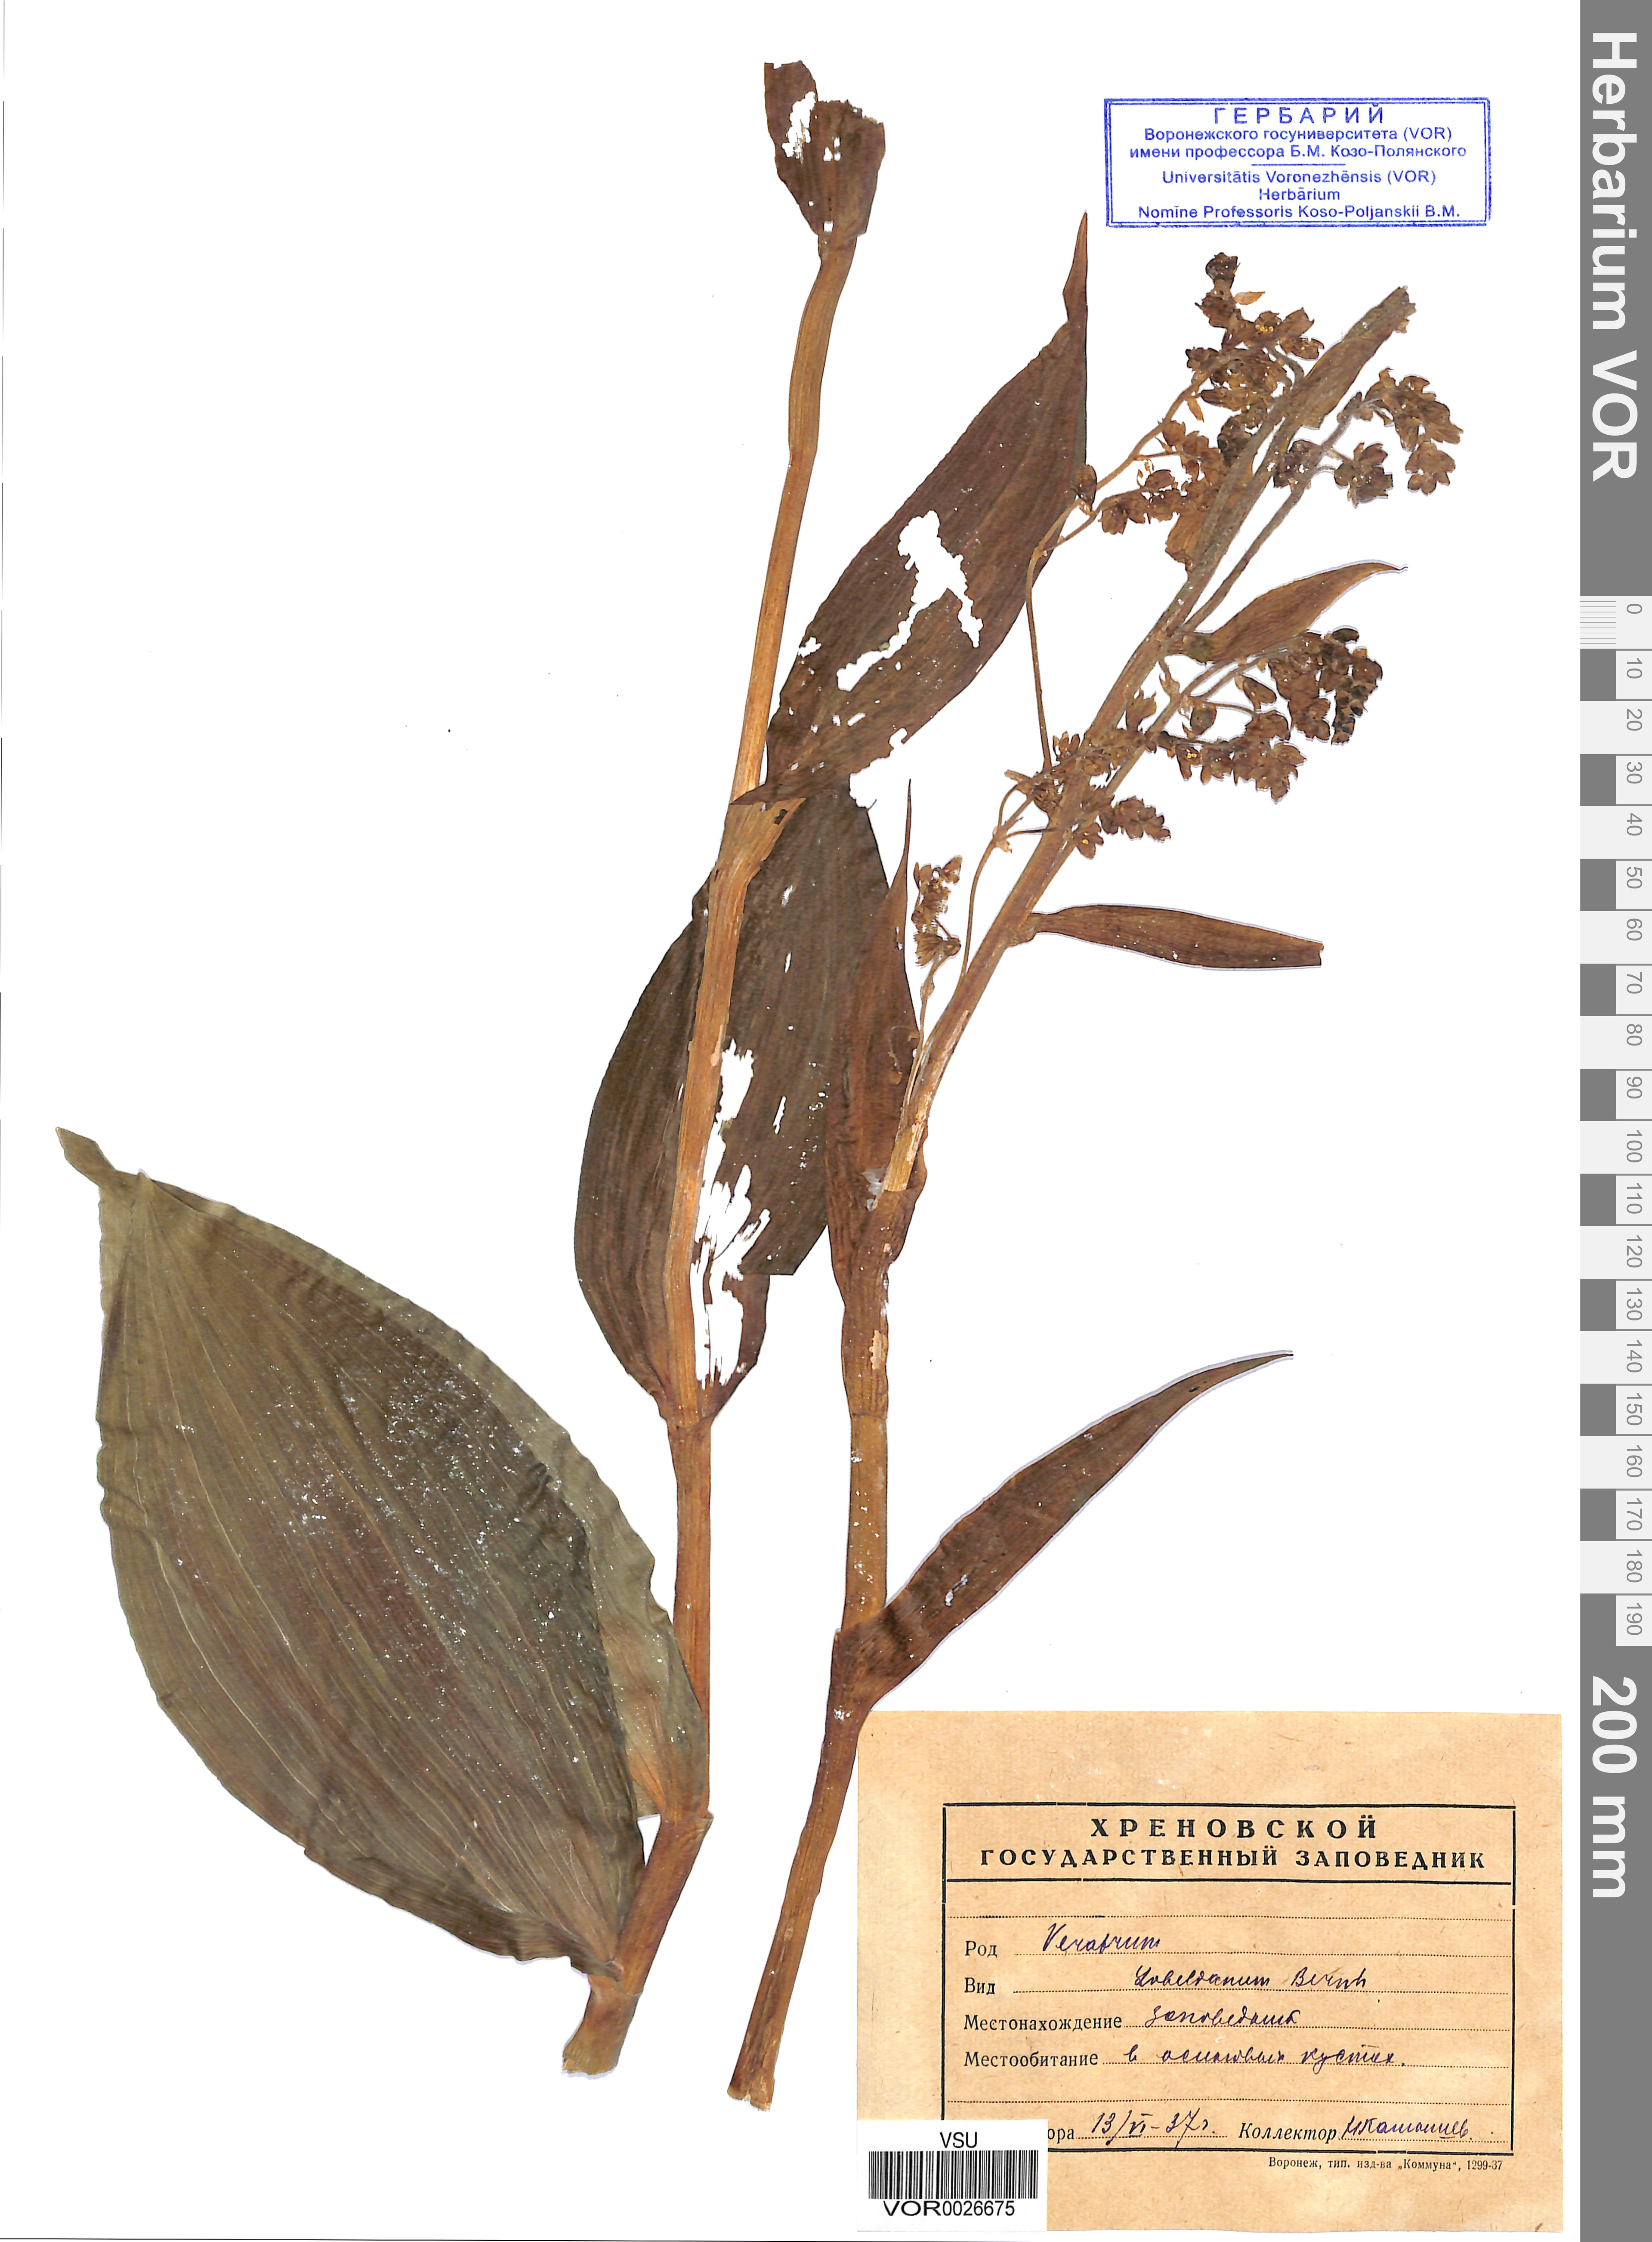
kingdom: Plantae
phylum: Tracheophyta
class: Liliopsida
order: Liliales
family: Melanthiaceae
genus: Veratrum
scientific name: Veratrum lobelianum
